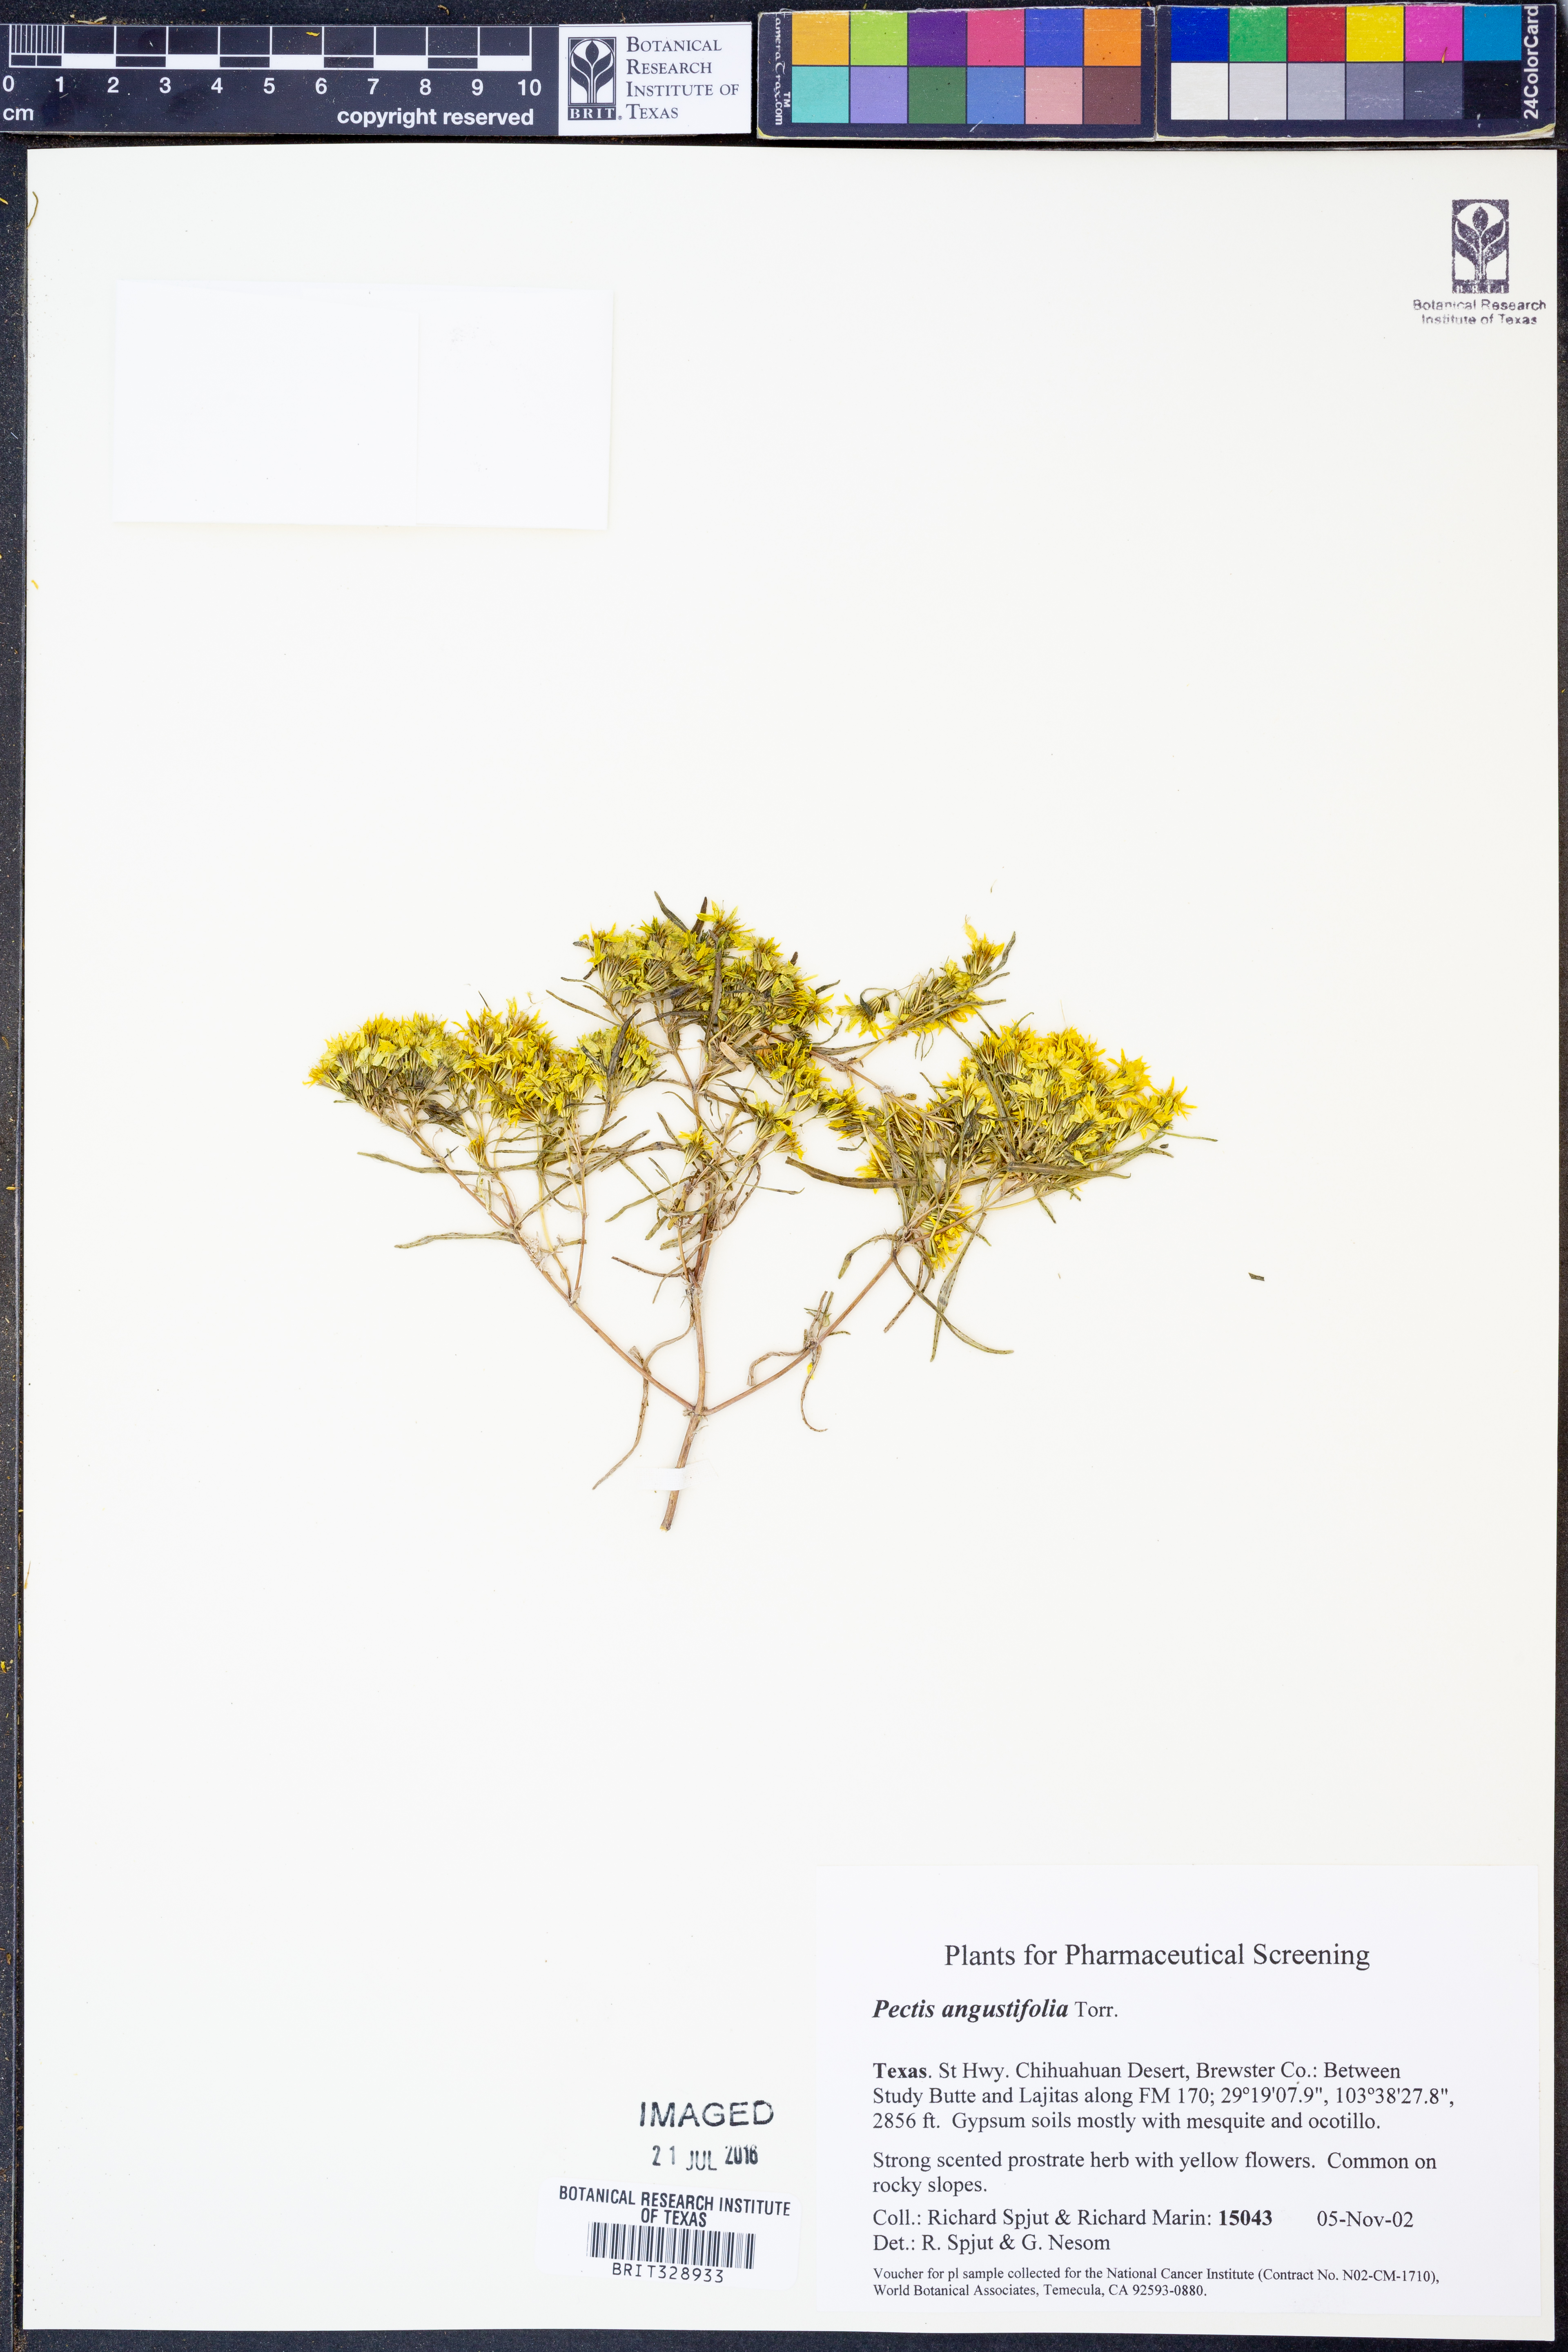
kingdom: Plantae
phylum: Tracheophyta
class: Magnoliopsida
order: Asterales
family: Asteraceae
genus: Pectis
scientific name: Pectis angustifolia
